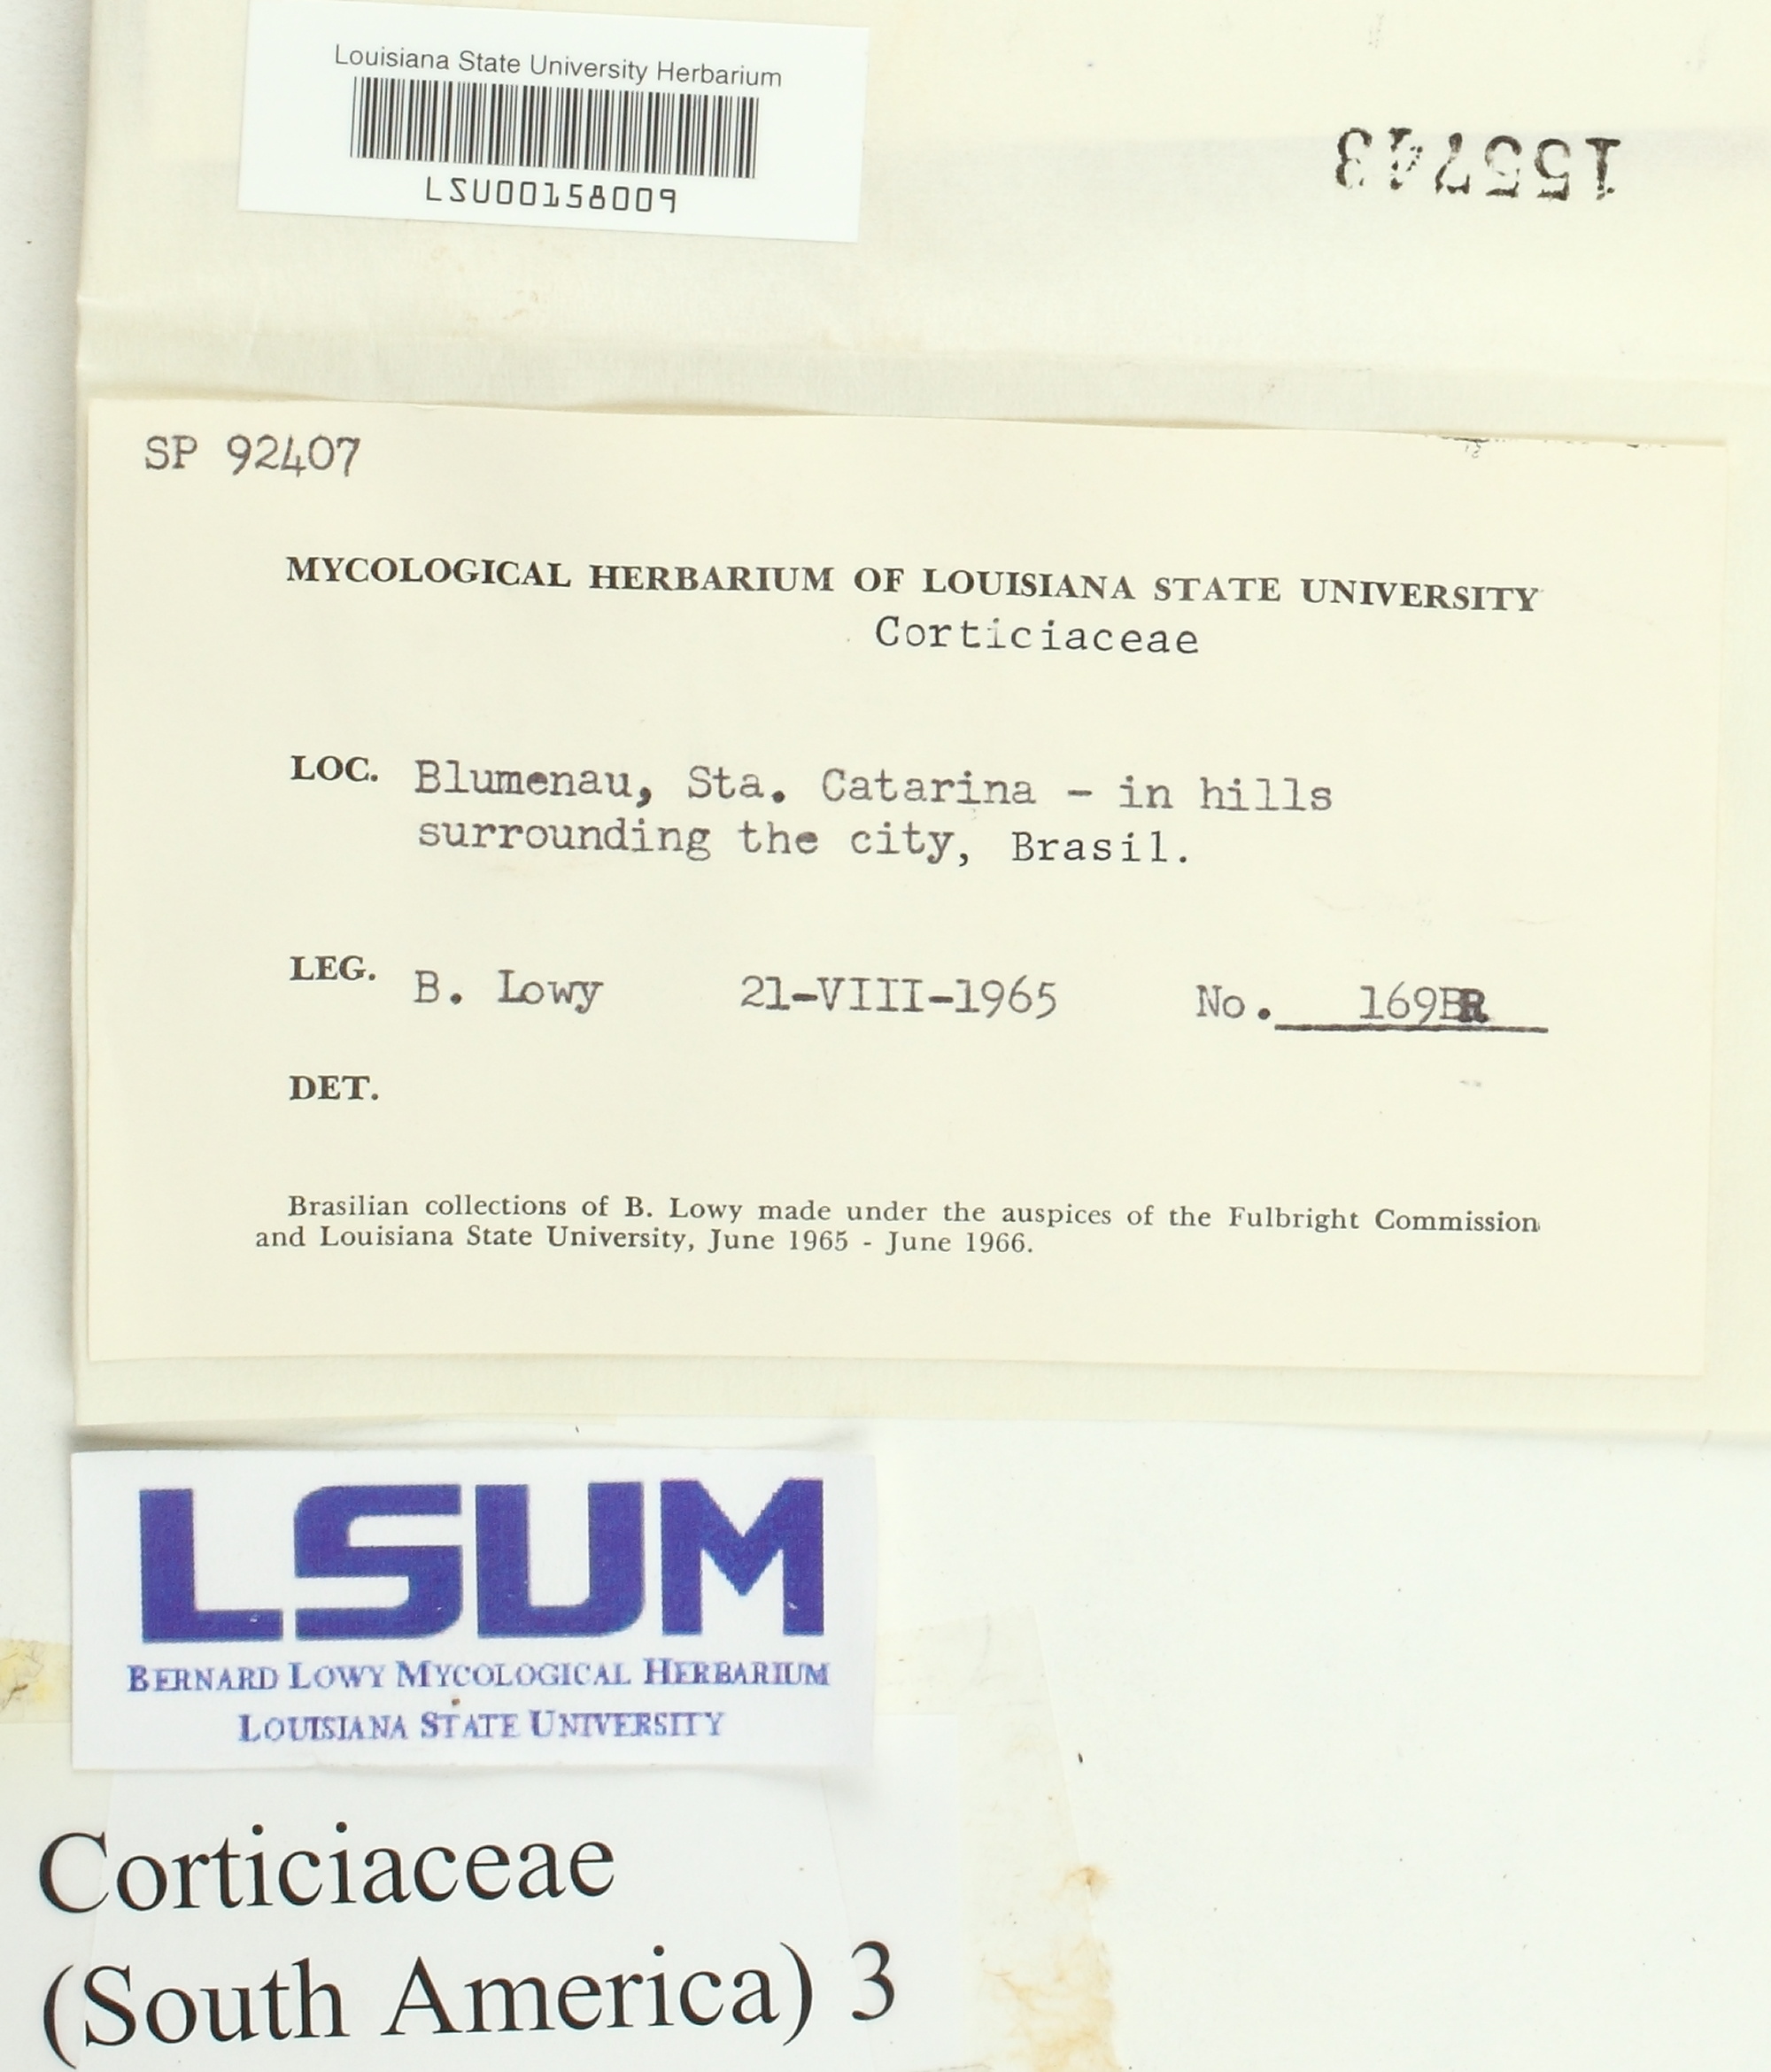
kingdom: Fungi
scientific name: Fungi
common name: Fungi
